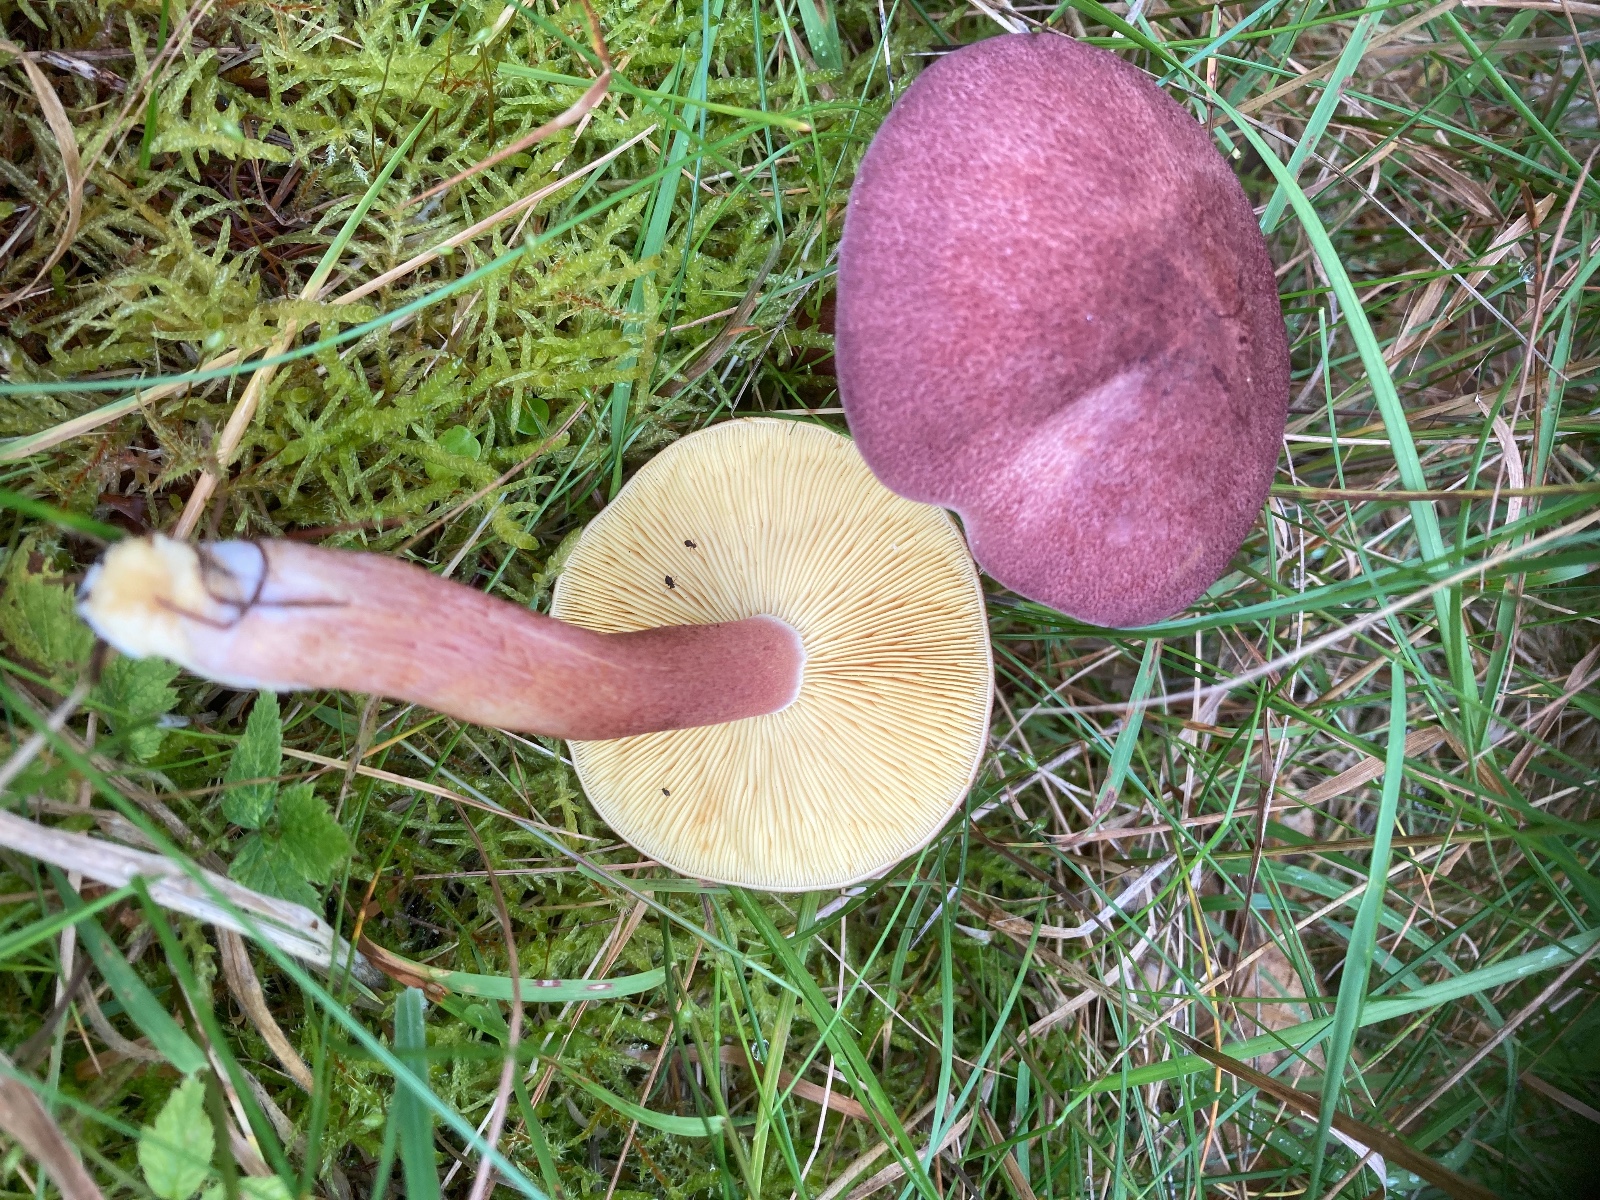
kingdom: Fungi
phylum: Basidiomycota
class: Agaricomycetes
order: Agaricales
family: Tricholomataceae
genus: Tricholomopsis
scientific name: Tricholomopsis rutilans
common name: purpur-væbnerhat
